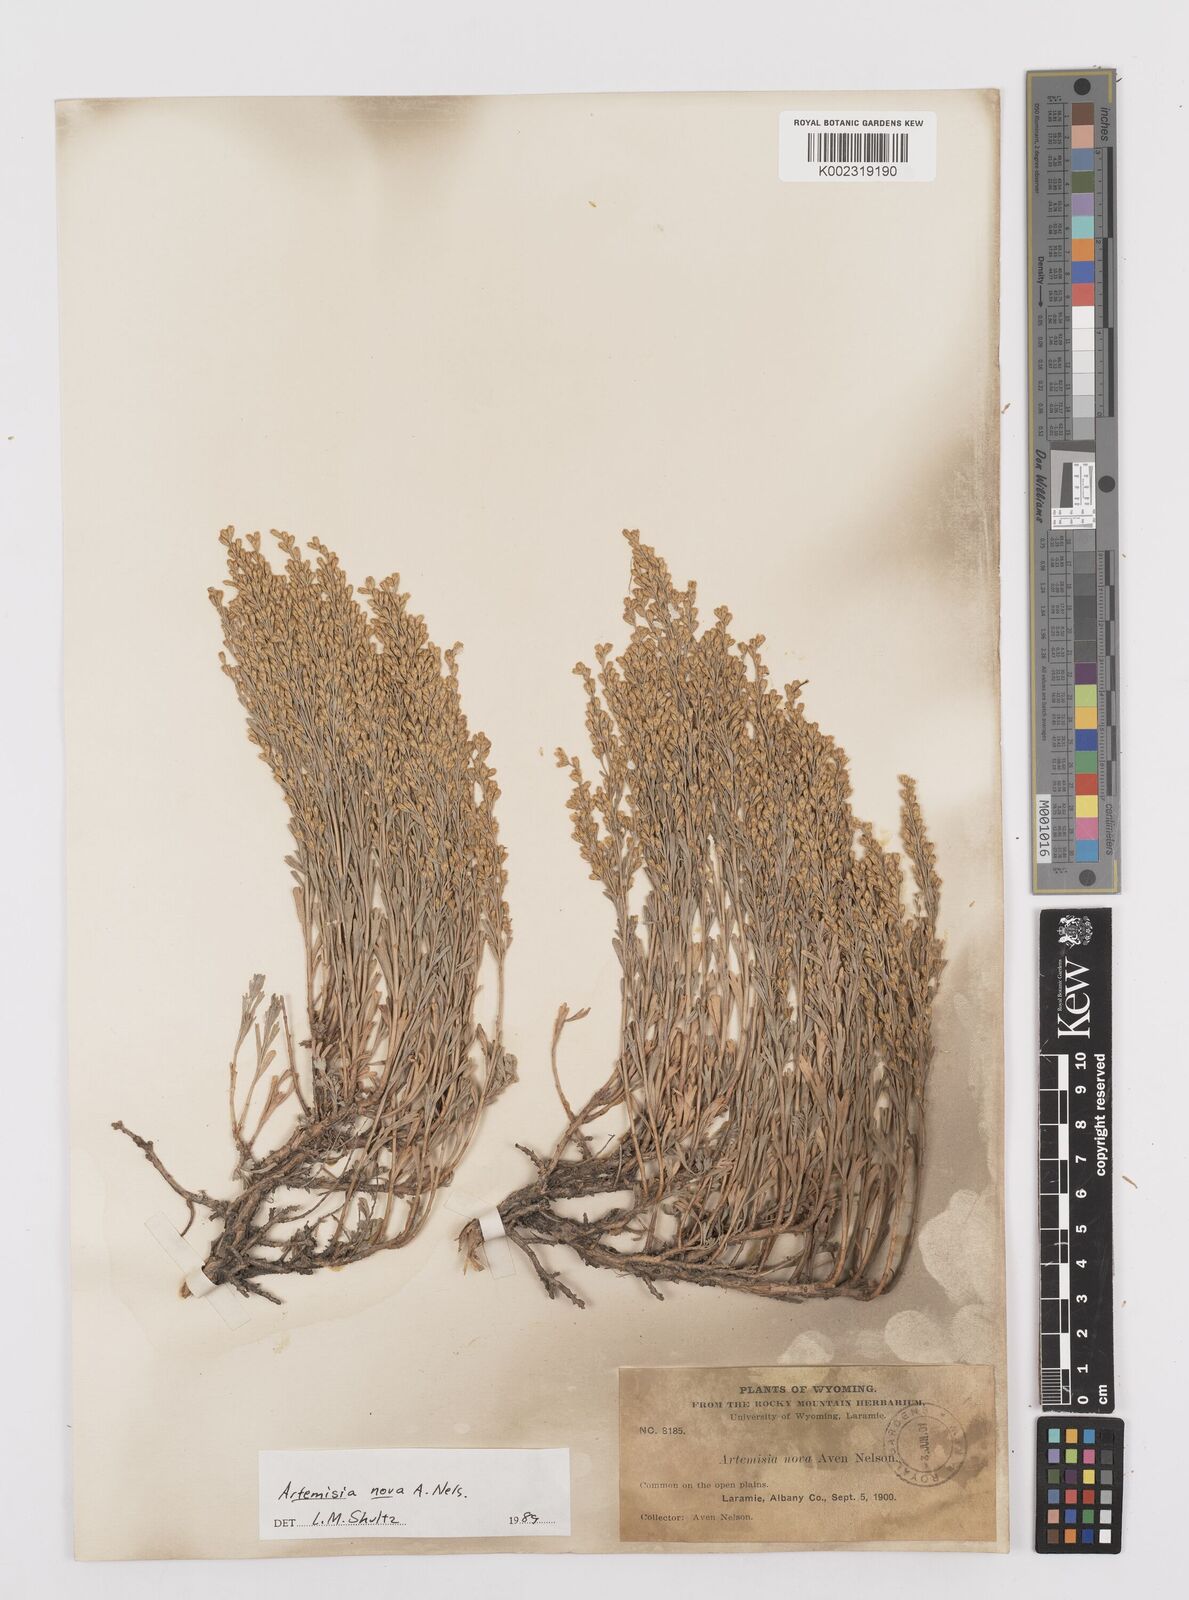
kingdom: Plantae
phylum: Tracheophyta
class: Magnoliopsida
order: Asterales
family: Asteraceae
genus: Artemisia
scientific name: Artemisia nova
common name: Black-sage
